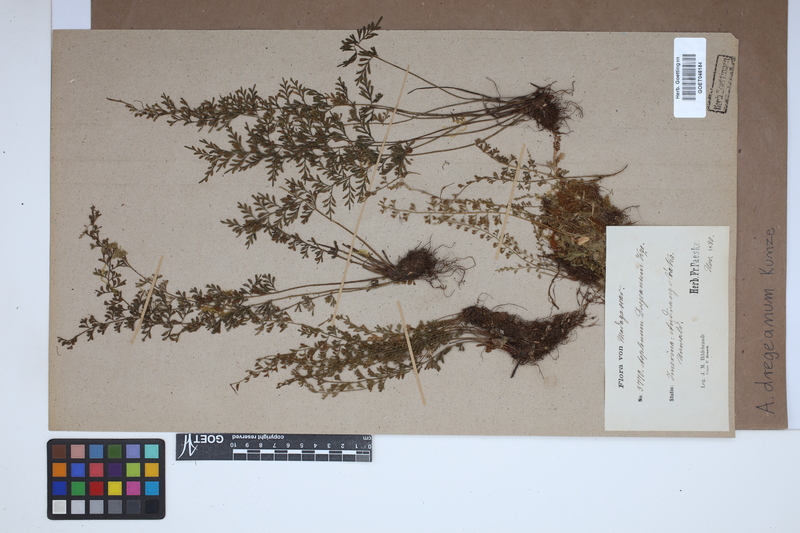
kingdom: Plantae
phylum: Tracheophyta
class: Polypodiopsida
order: Polypodiales
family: Aspleniaceae
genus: Asplenium
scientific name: Asplenium dregeanum
